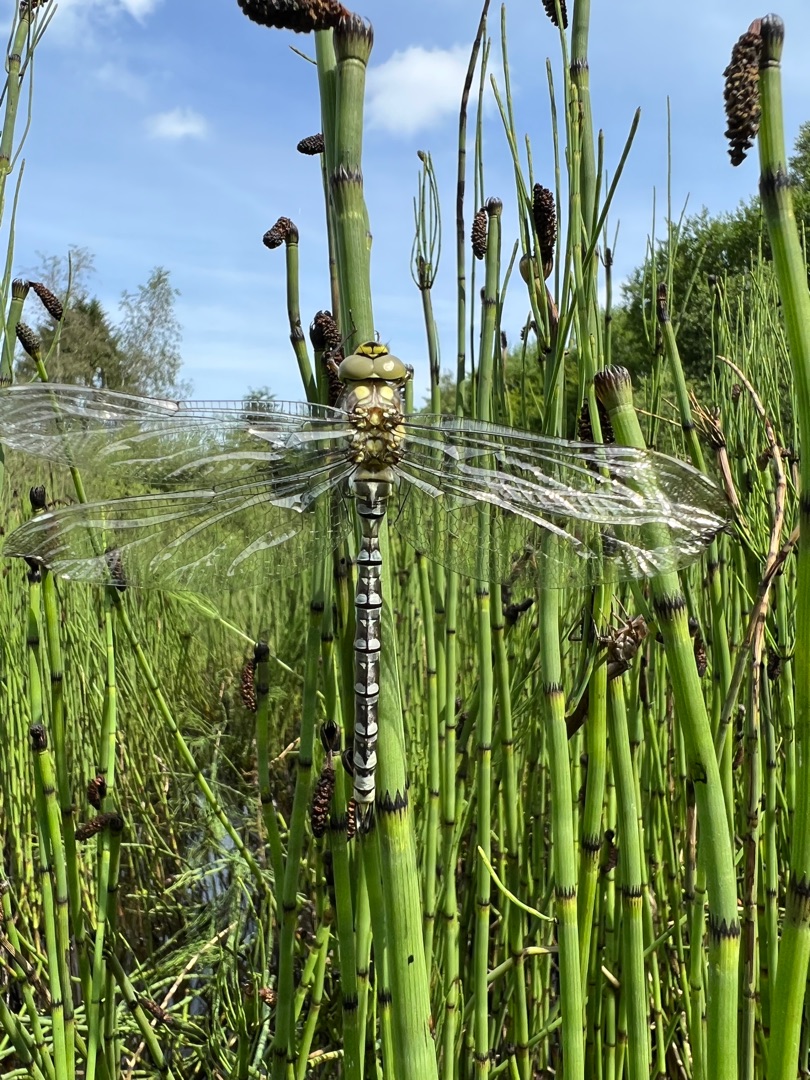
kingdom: Animalia
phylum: Arthropoda
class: Insecta
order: Odonata
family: Aeshnidae
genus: Aeshna
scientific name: Aeshna cyanea
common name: Blå mosaikguldsmed
